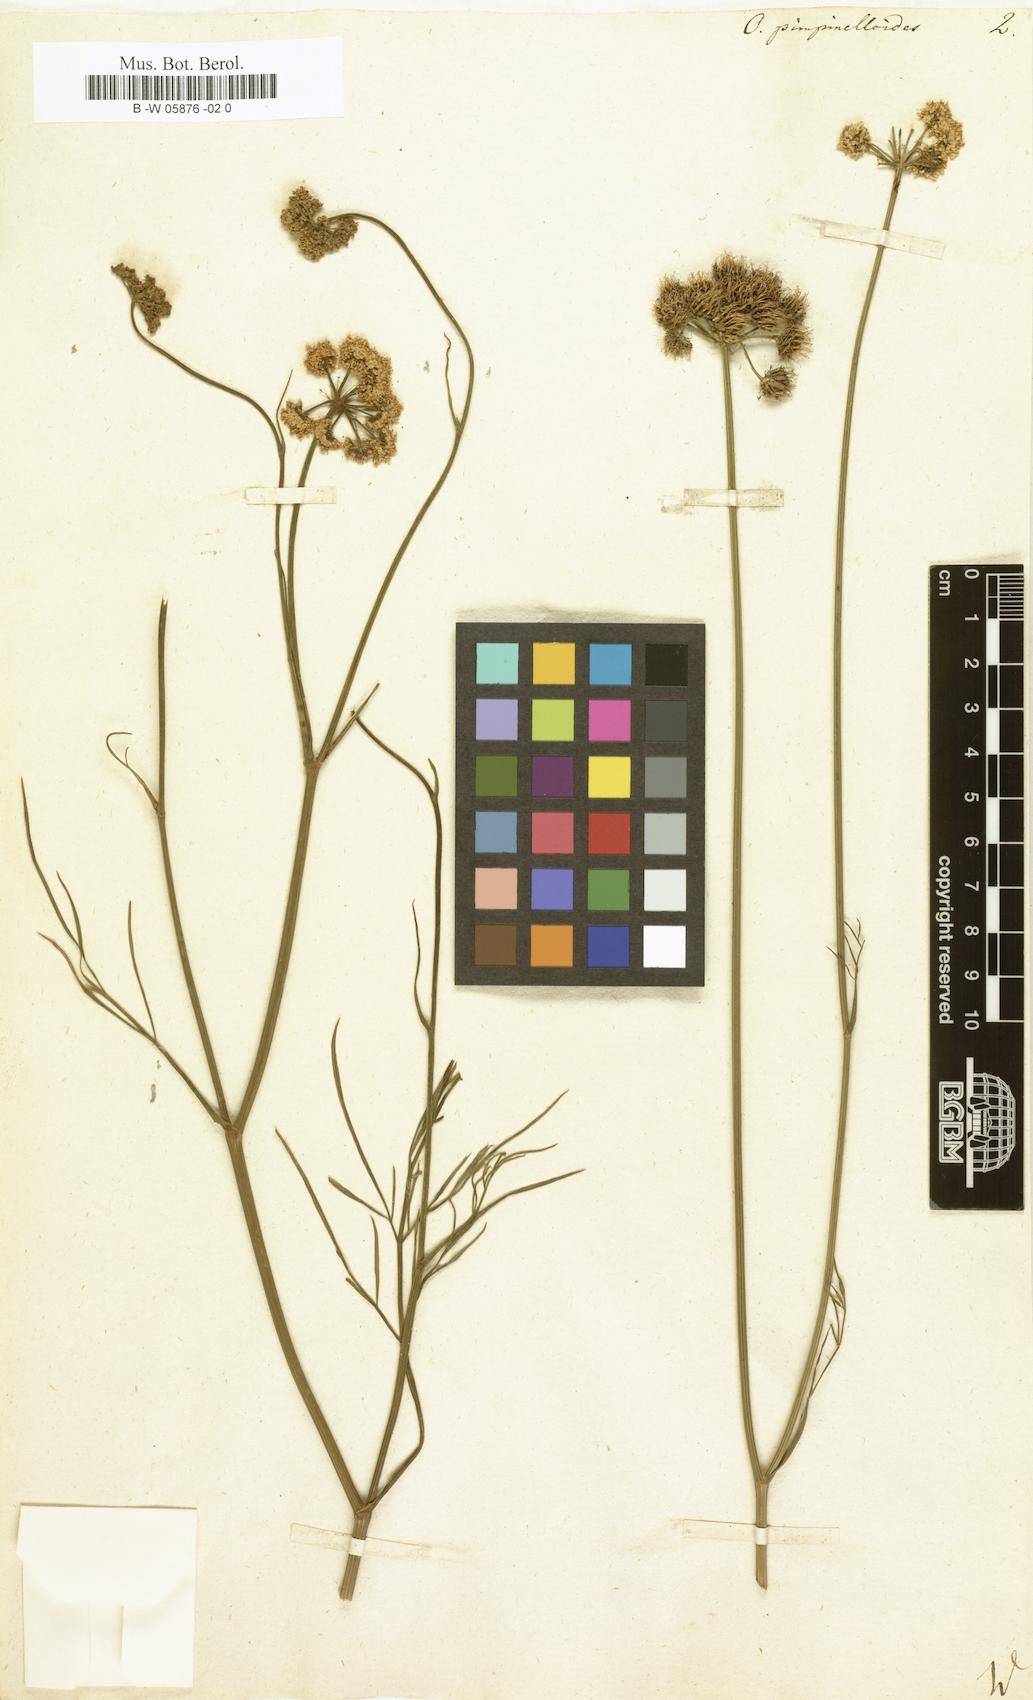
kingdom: Plantae
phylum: Tracheophyta
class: Magnoliopsida
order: Apiales
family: Apiaceae
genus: Oenanthe
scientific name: Oenanthe pimpinelloides
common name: Corky-fruited water-dropwort
